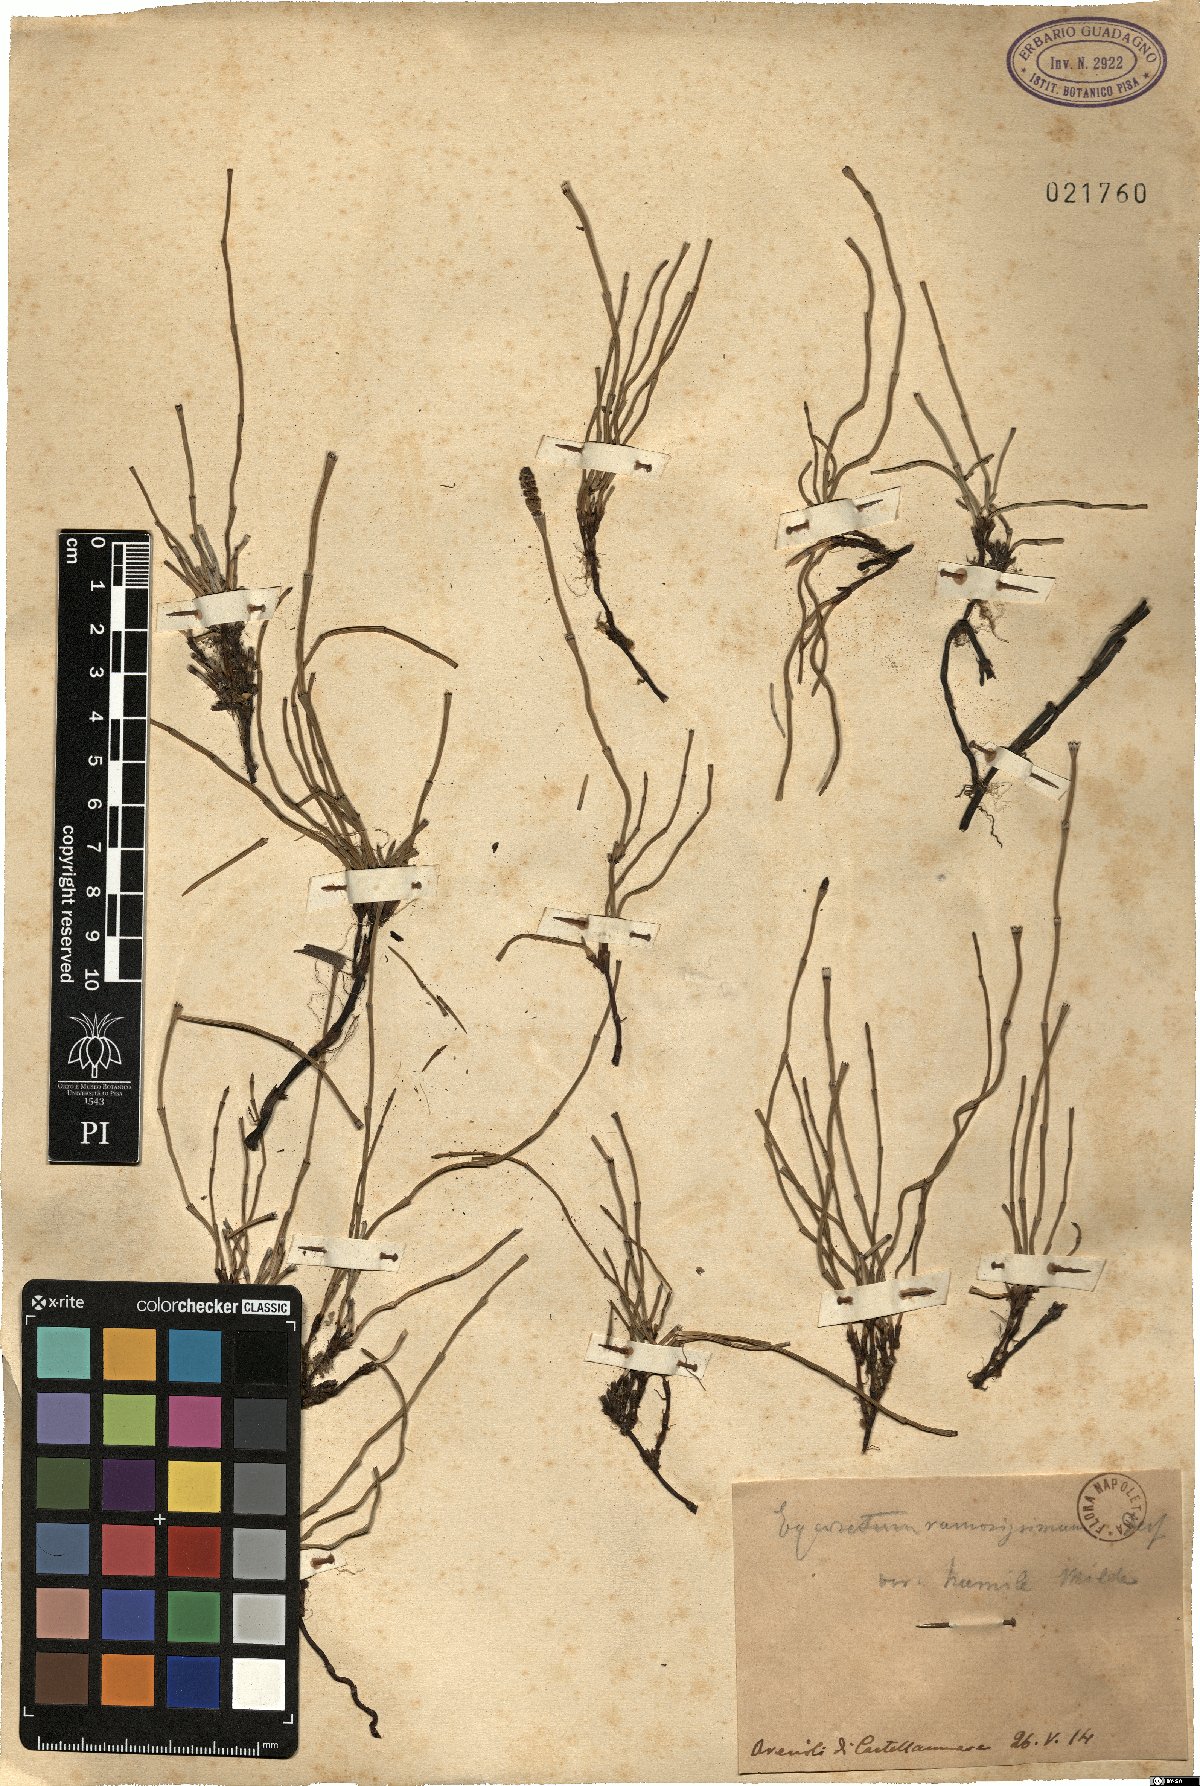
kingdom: Plantae
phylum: Tracheophyta
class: Polypodiopsida
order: Equisetales
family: Equisetaceae
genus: Equisetum
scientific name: Equisetum ramosissimum
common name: Branched horsetail
